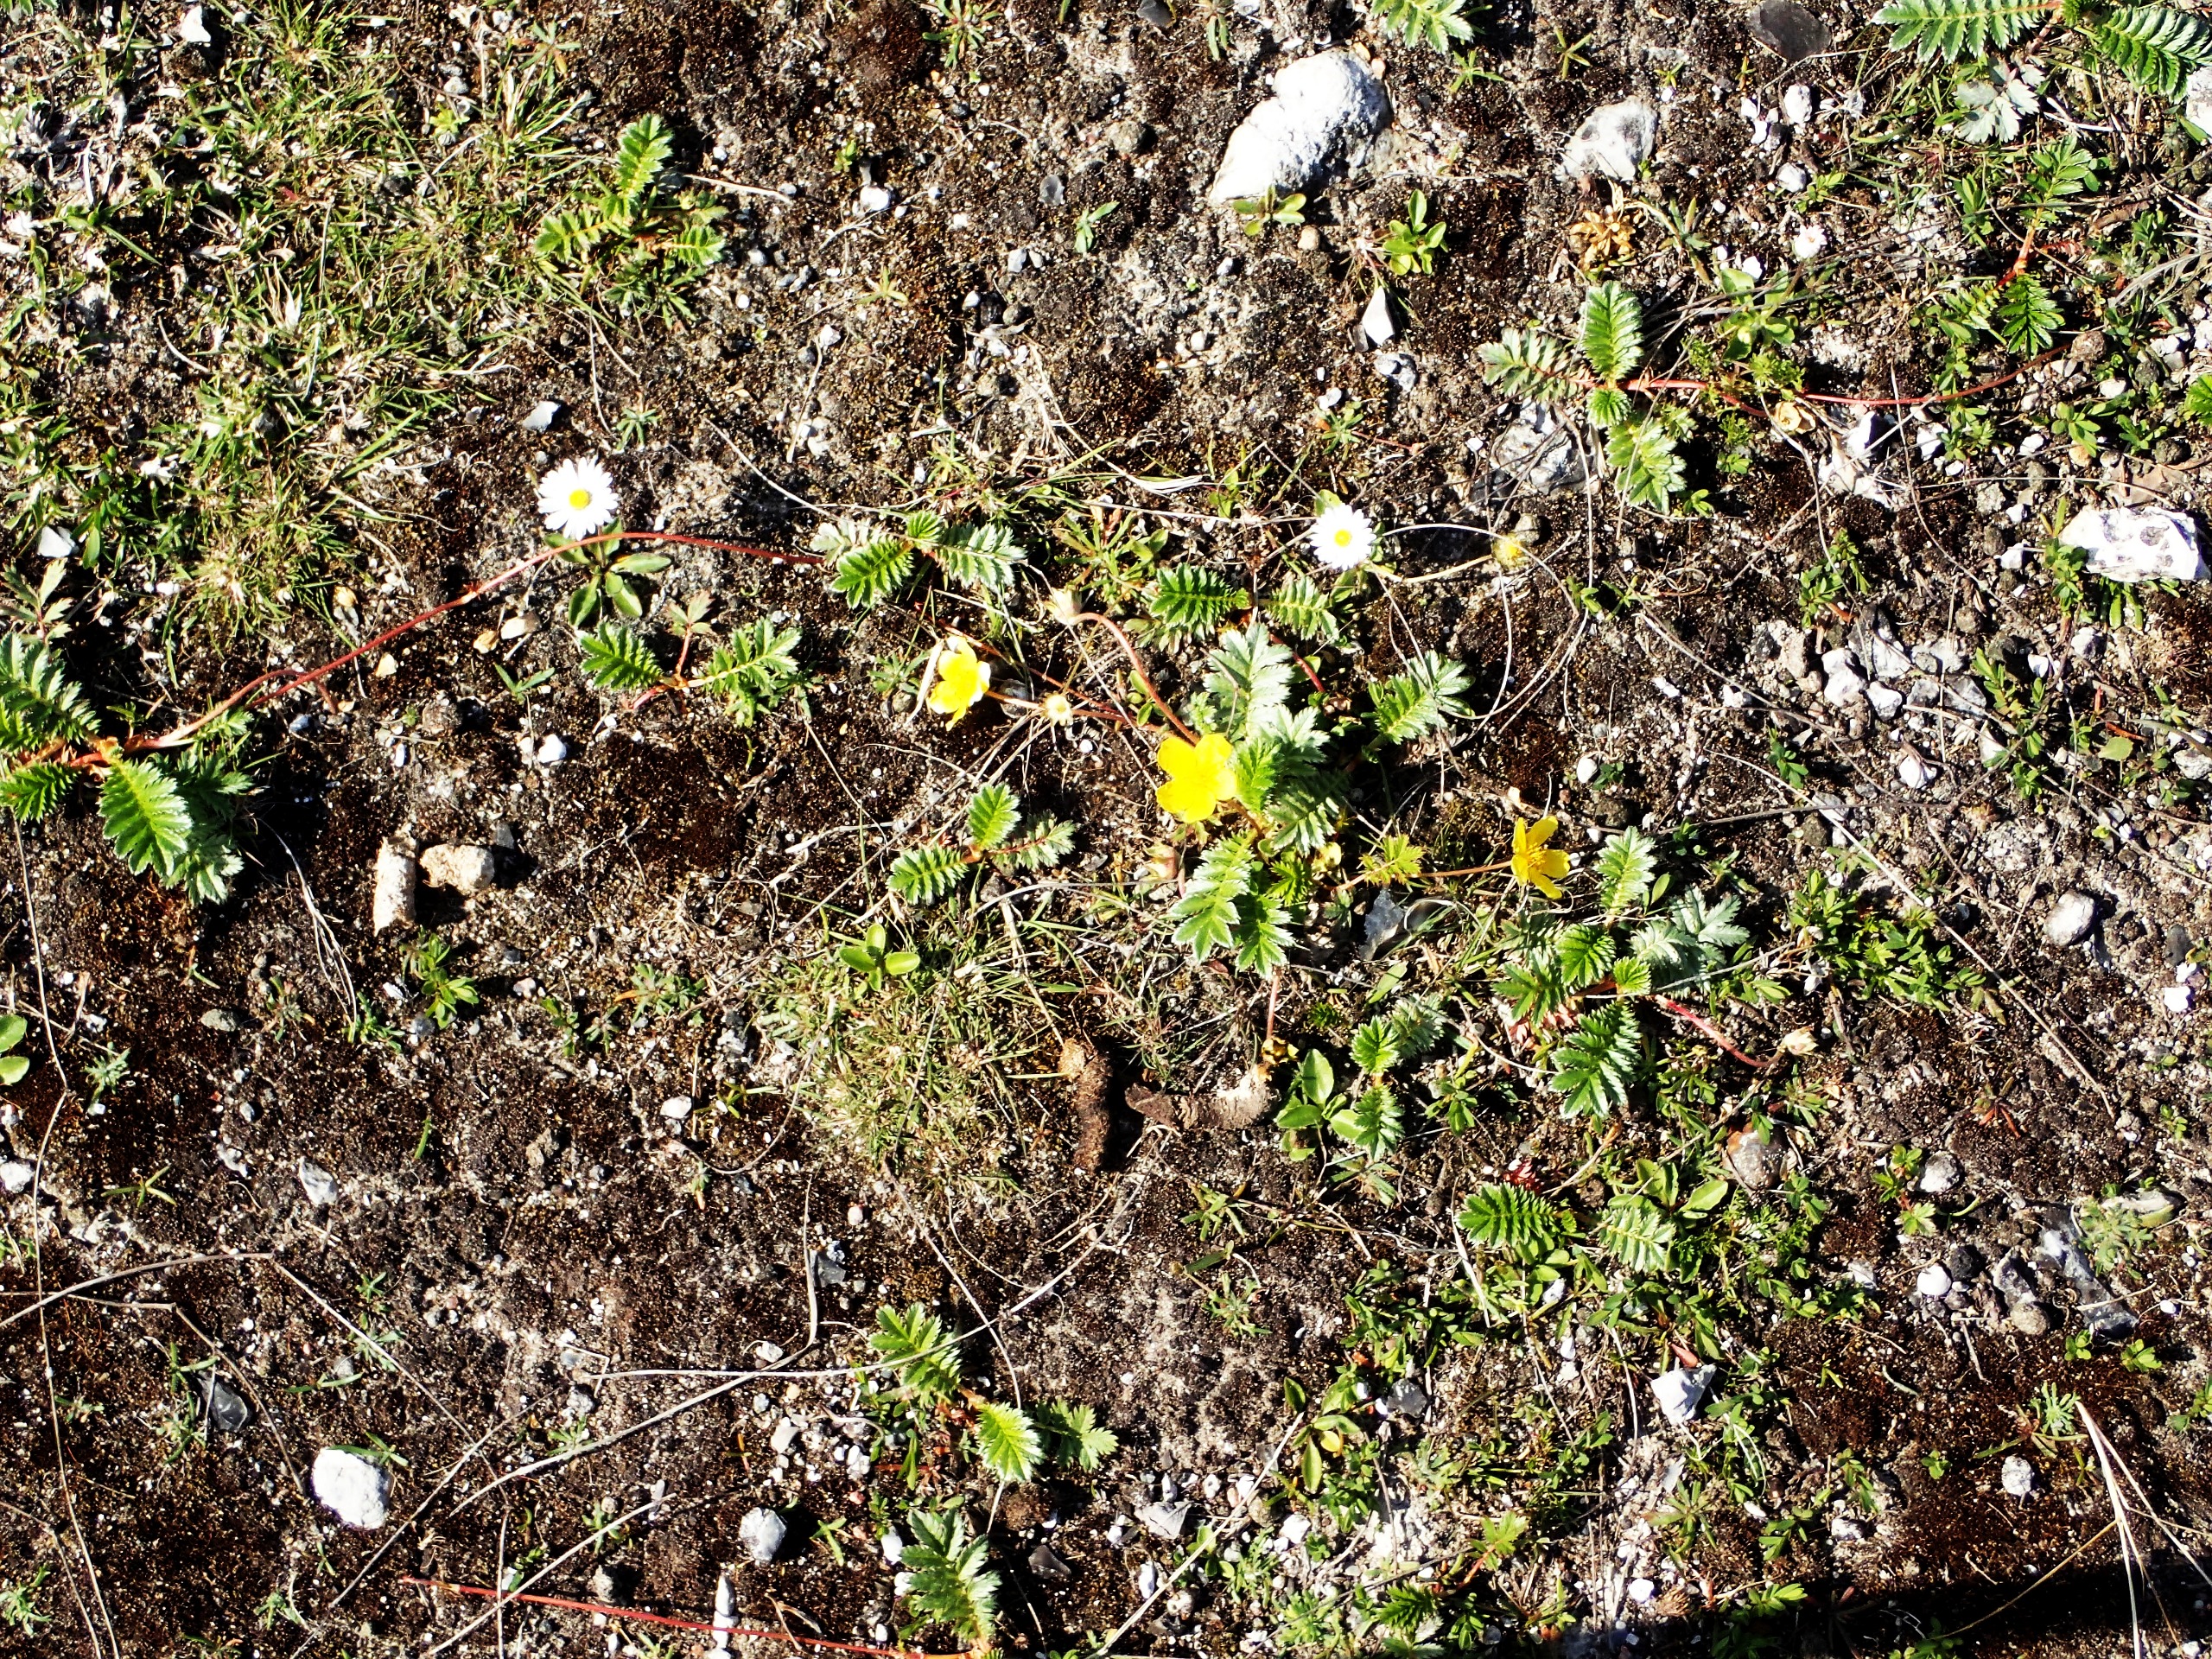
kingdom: Plantae
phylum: Tracheophyta
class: Magnoliopsida
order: Rosales
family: Rosaceae
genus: Argentina
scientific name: Argentina anserina
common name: Gåsepotentil
